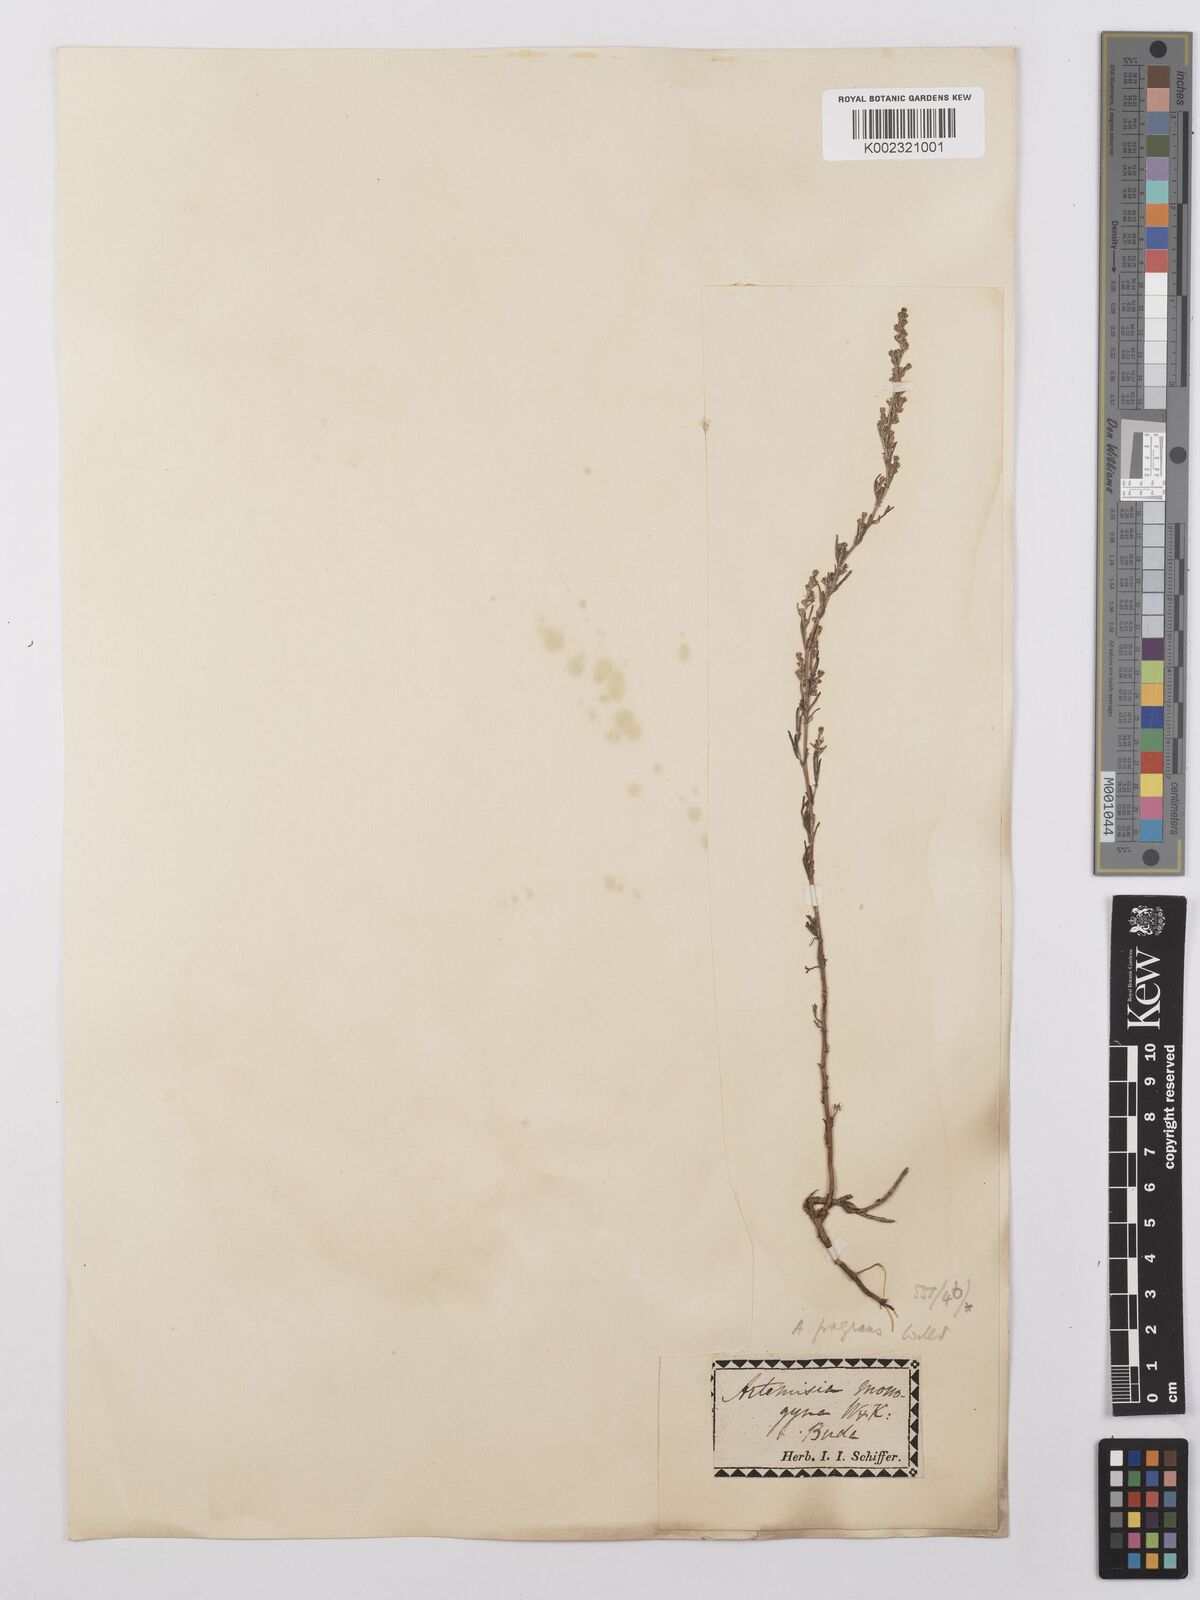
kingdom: Plantae
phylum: Tracheophyta
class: Magnoliopsida
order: Asterales
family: Asteraceae
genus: Artemisia
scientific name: Artemisia santolina
